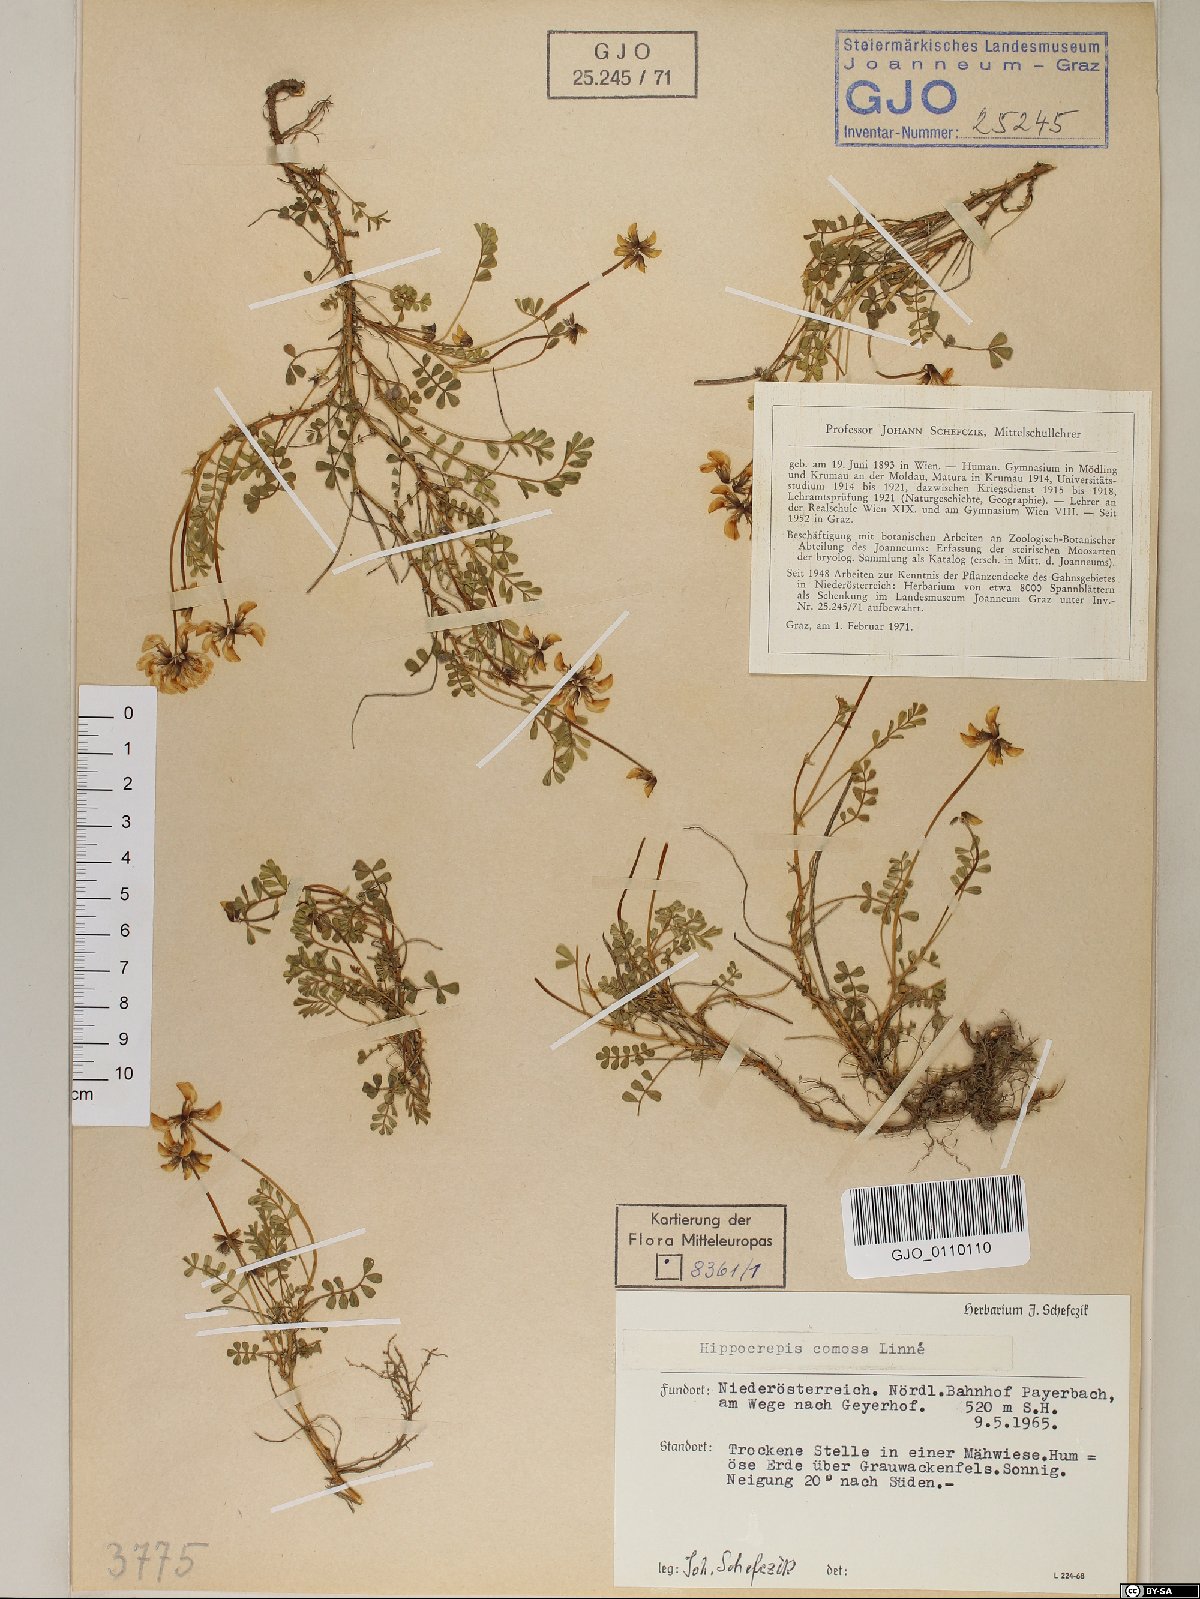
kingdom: Plantae
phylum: Tracheophyta
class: Magnoliopsida
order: Fabales
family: Fabaceae
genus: Hippocrepis
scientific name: Hippocrepis comosa
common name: Horseshoe vetch
